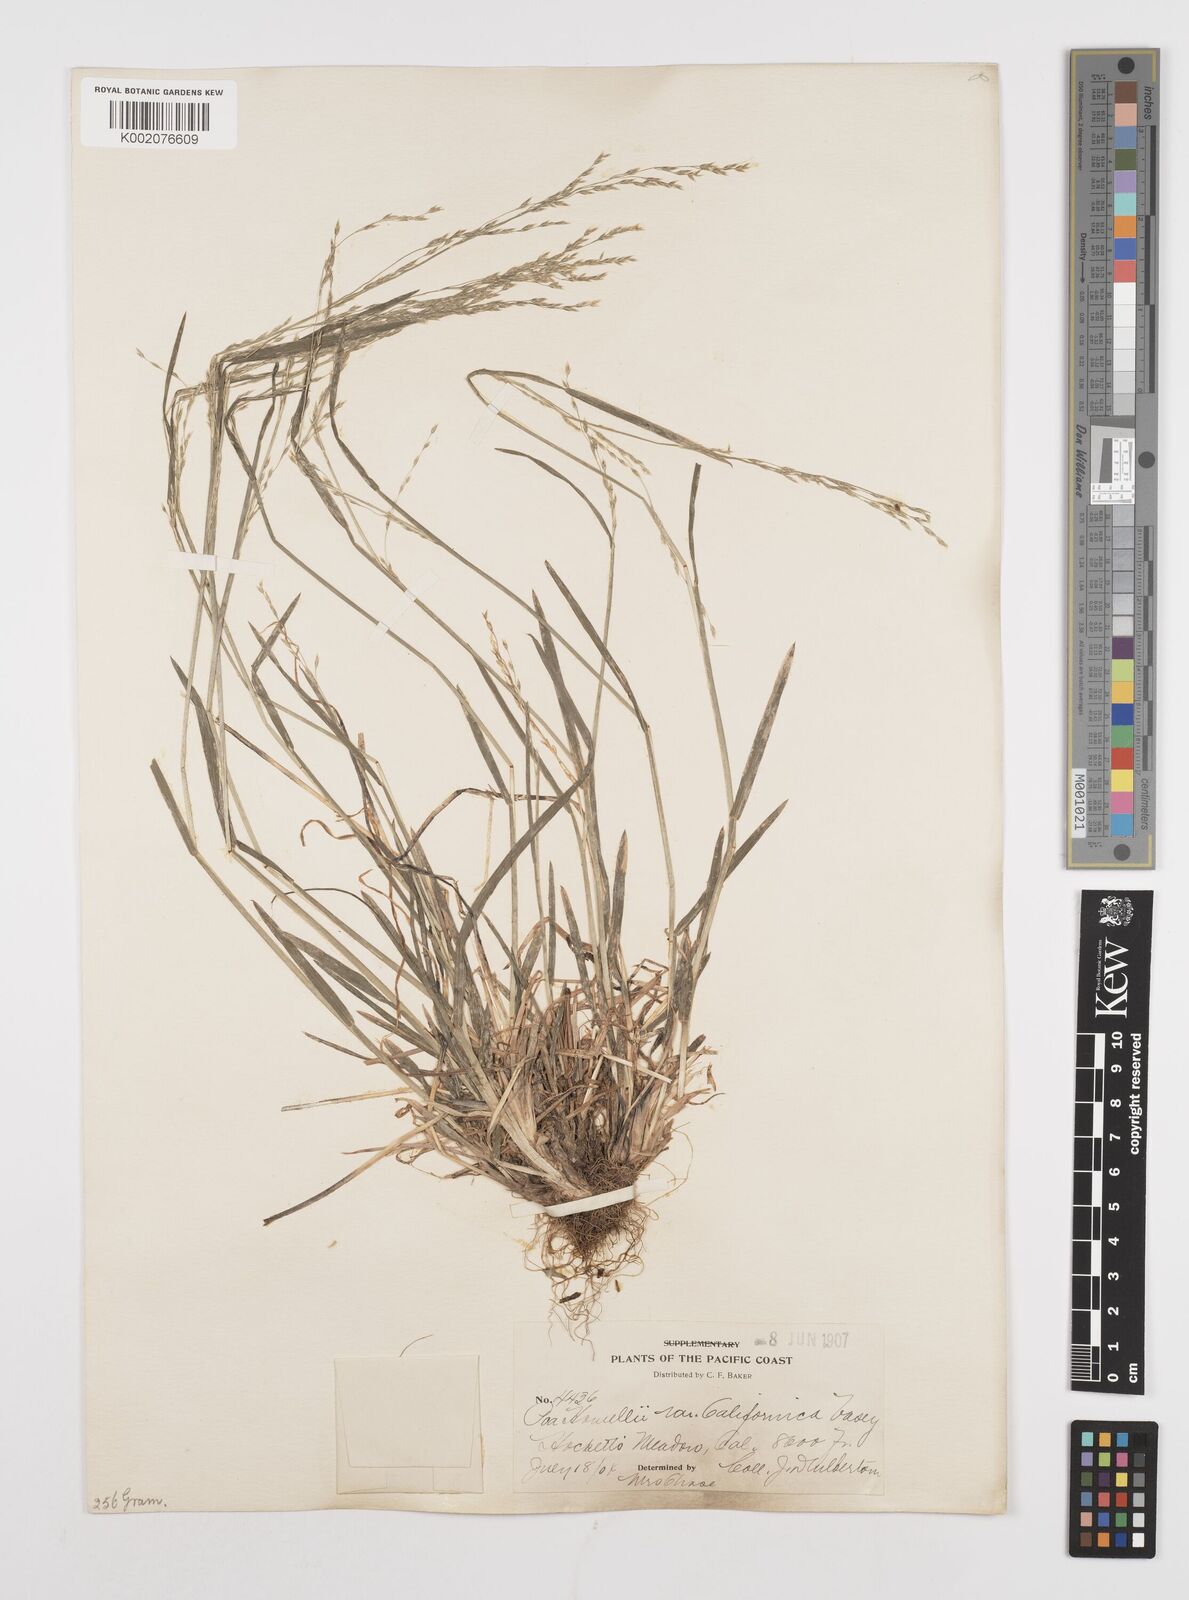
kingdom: Plantae
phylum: Tracheophyta
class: Liliopsida
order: Poales
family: Poaceae
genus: Poa
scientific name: Poa howellii
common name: Howell's bluegrass
